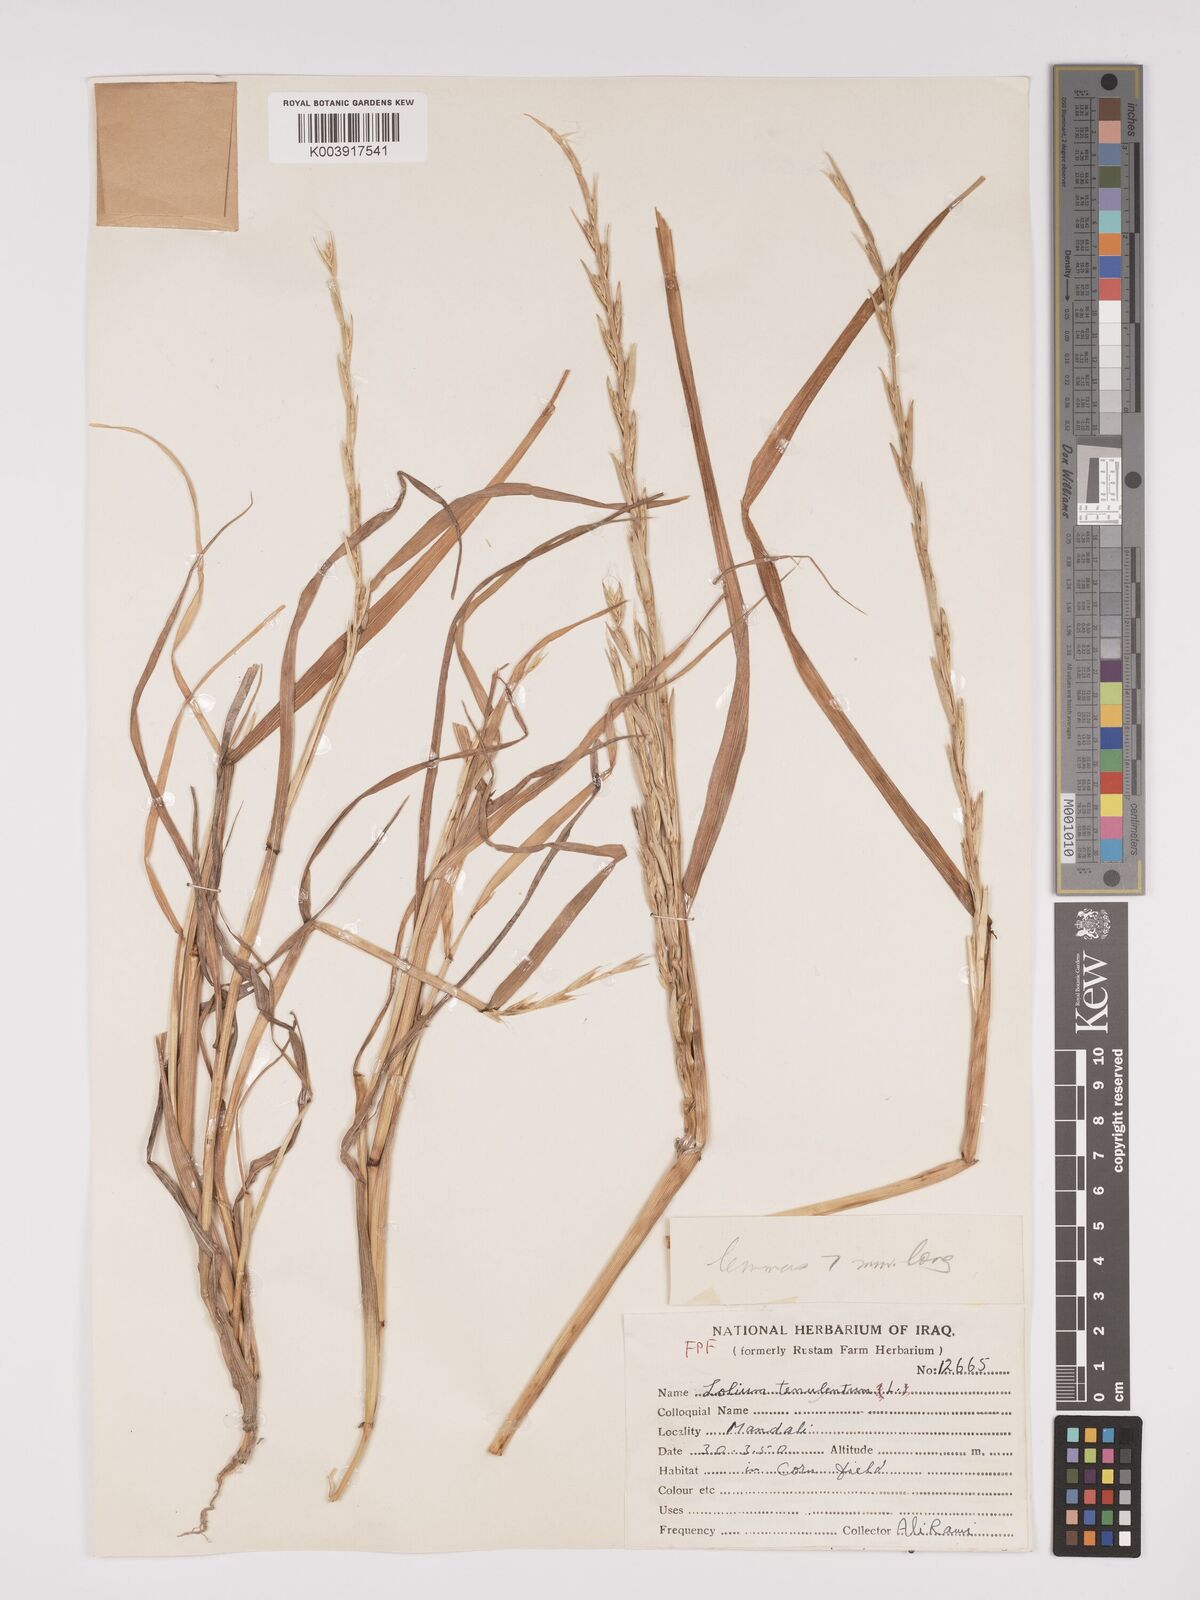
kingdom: Plantae
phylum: Tracheophyta
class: Liliopsida
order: Poales
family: Poaceae
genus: Lolium
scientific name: Lolium temulentum
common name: Darnel
